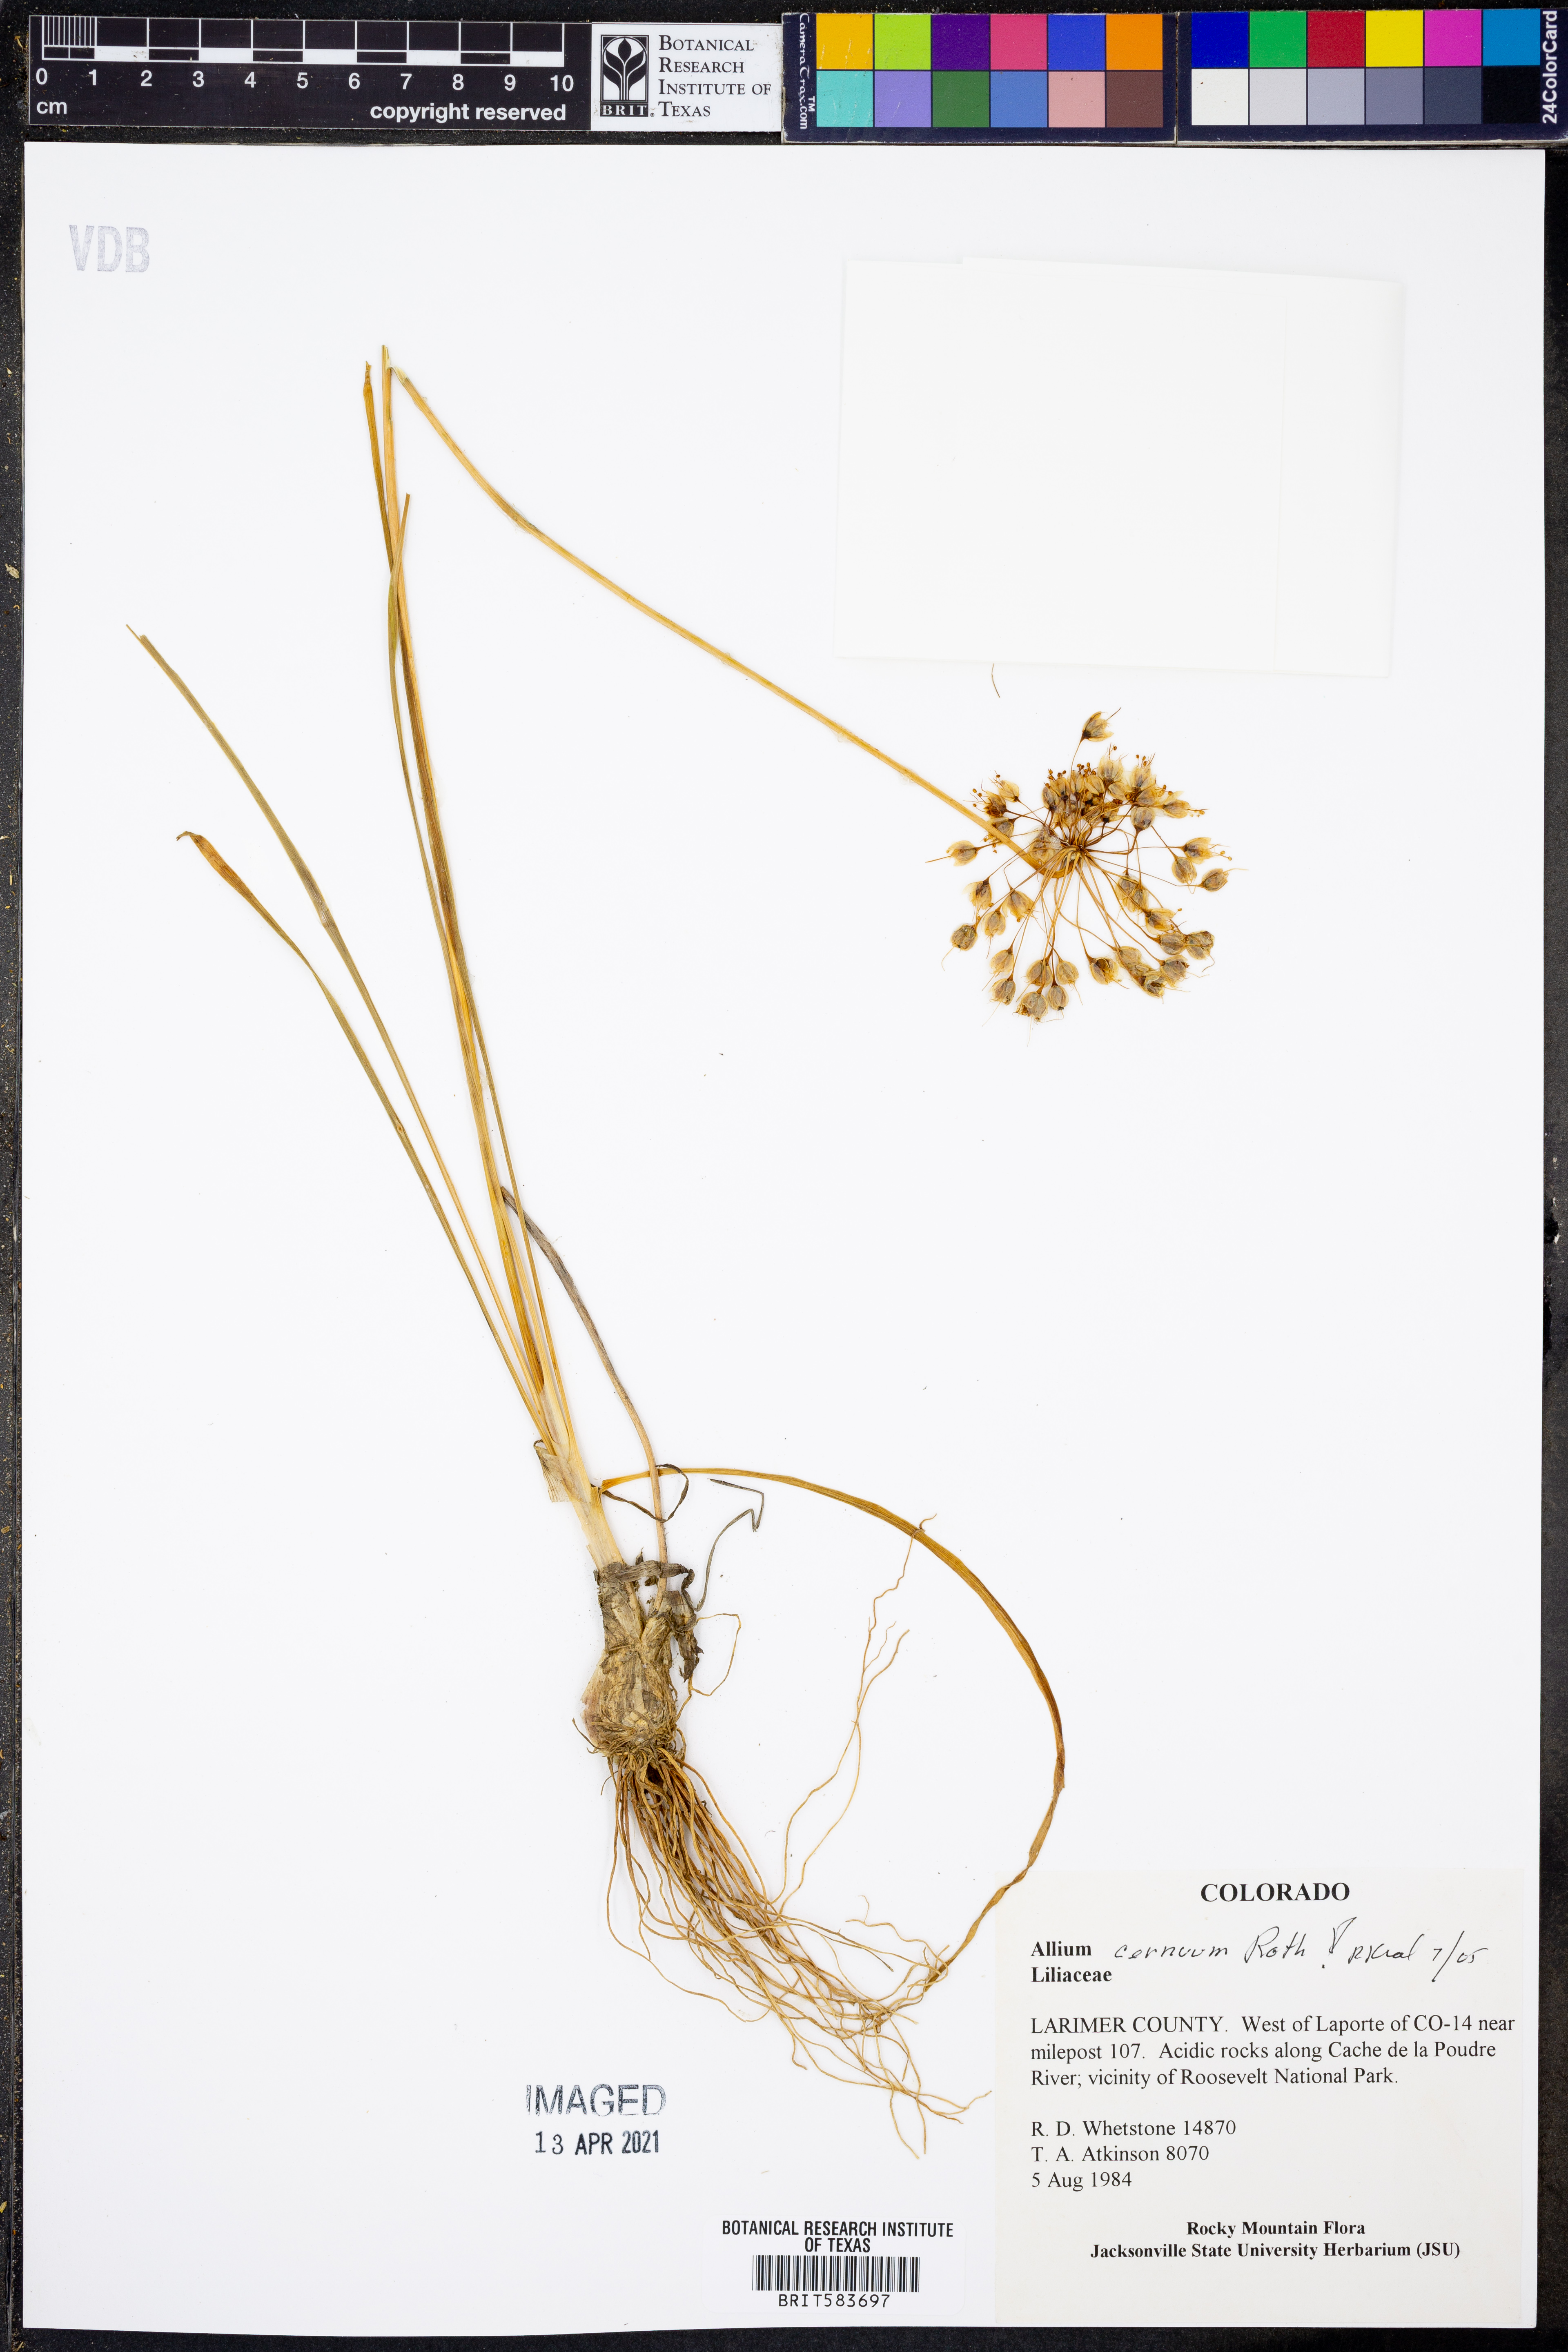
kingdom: Plantae
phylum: Tracheophyta
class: Liliopsida
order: Asparagales
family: Amaryllidaceae
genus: Allium
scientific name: Allium cernuum
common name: Nodding onion
